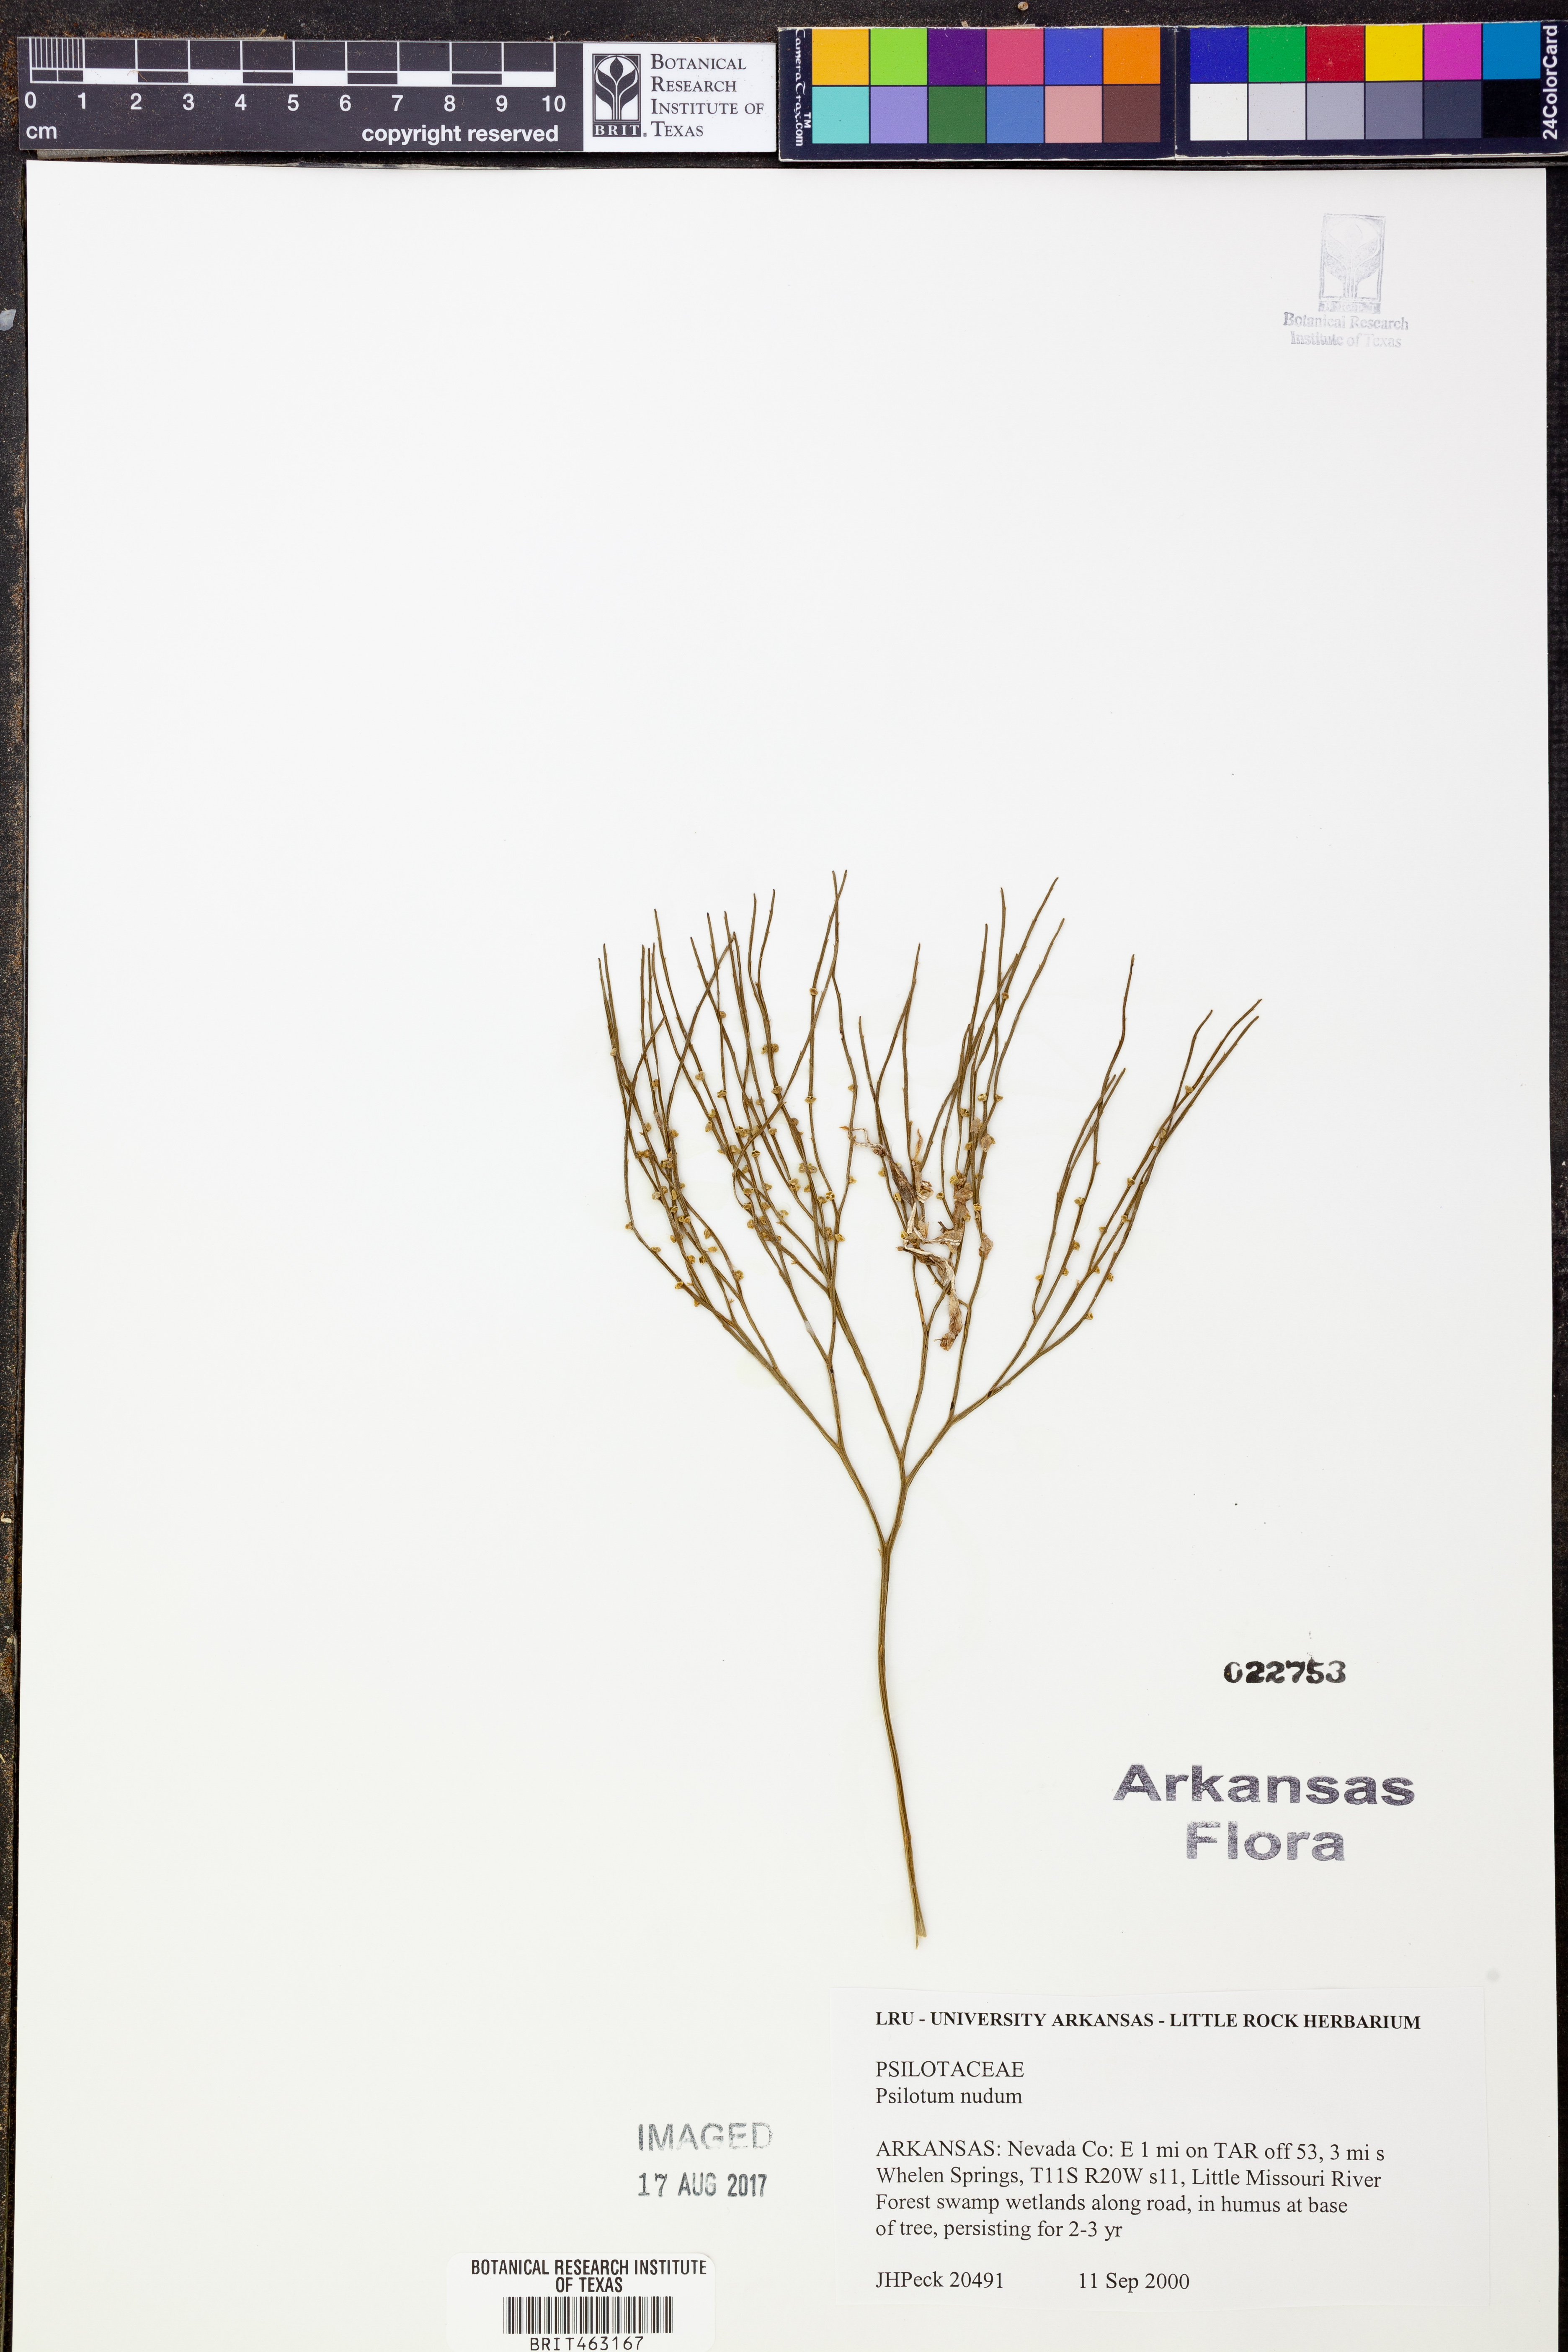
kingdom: Plantae
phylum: Tracheophyta
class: Polypodiopsida
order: Psilotales
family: Psilotaceae
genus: Psilotum
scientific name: Psilotum nudum
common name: Skeleton fork fern
